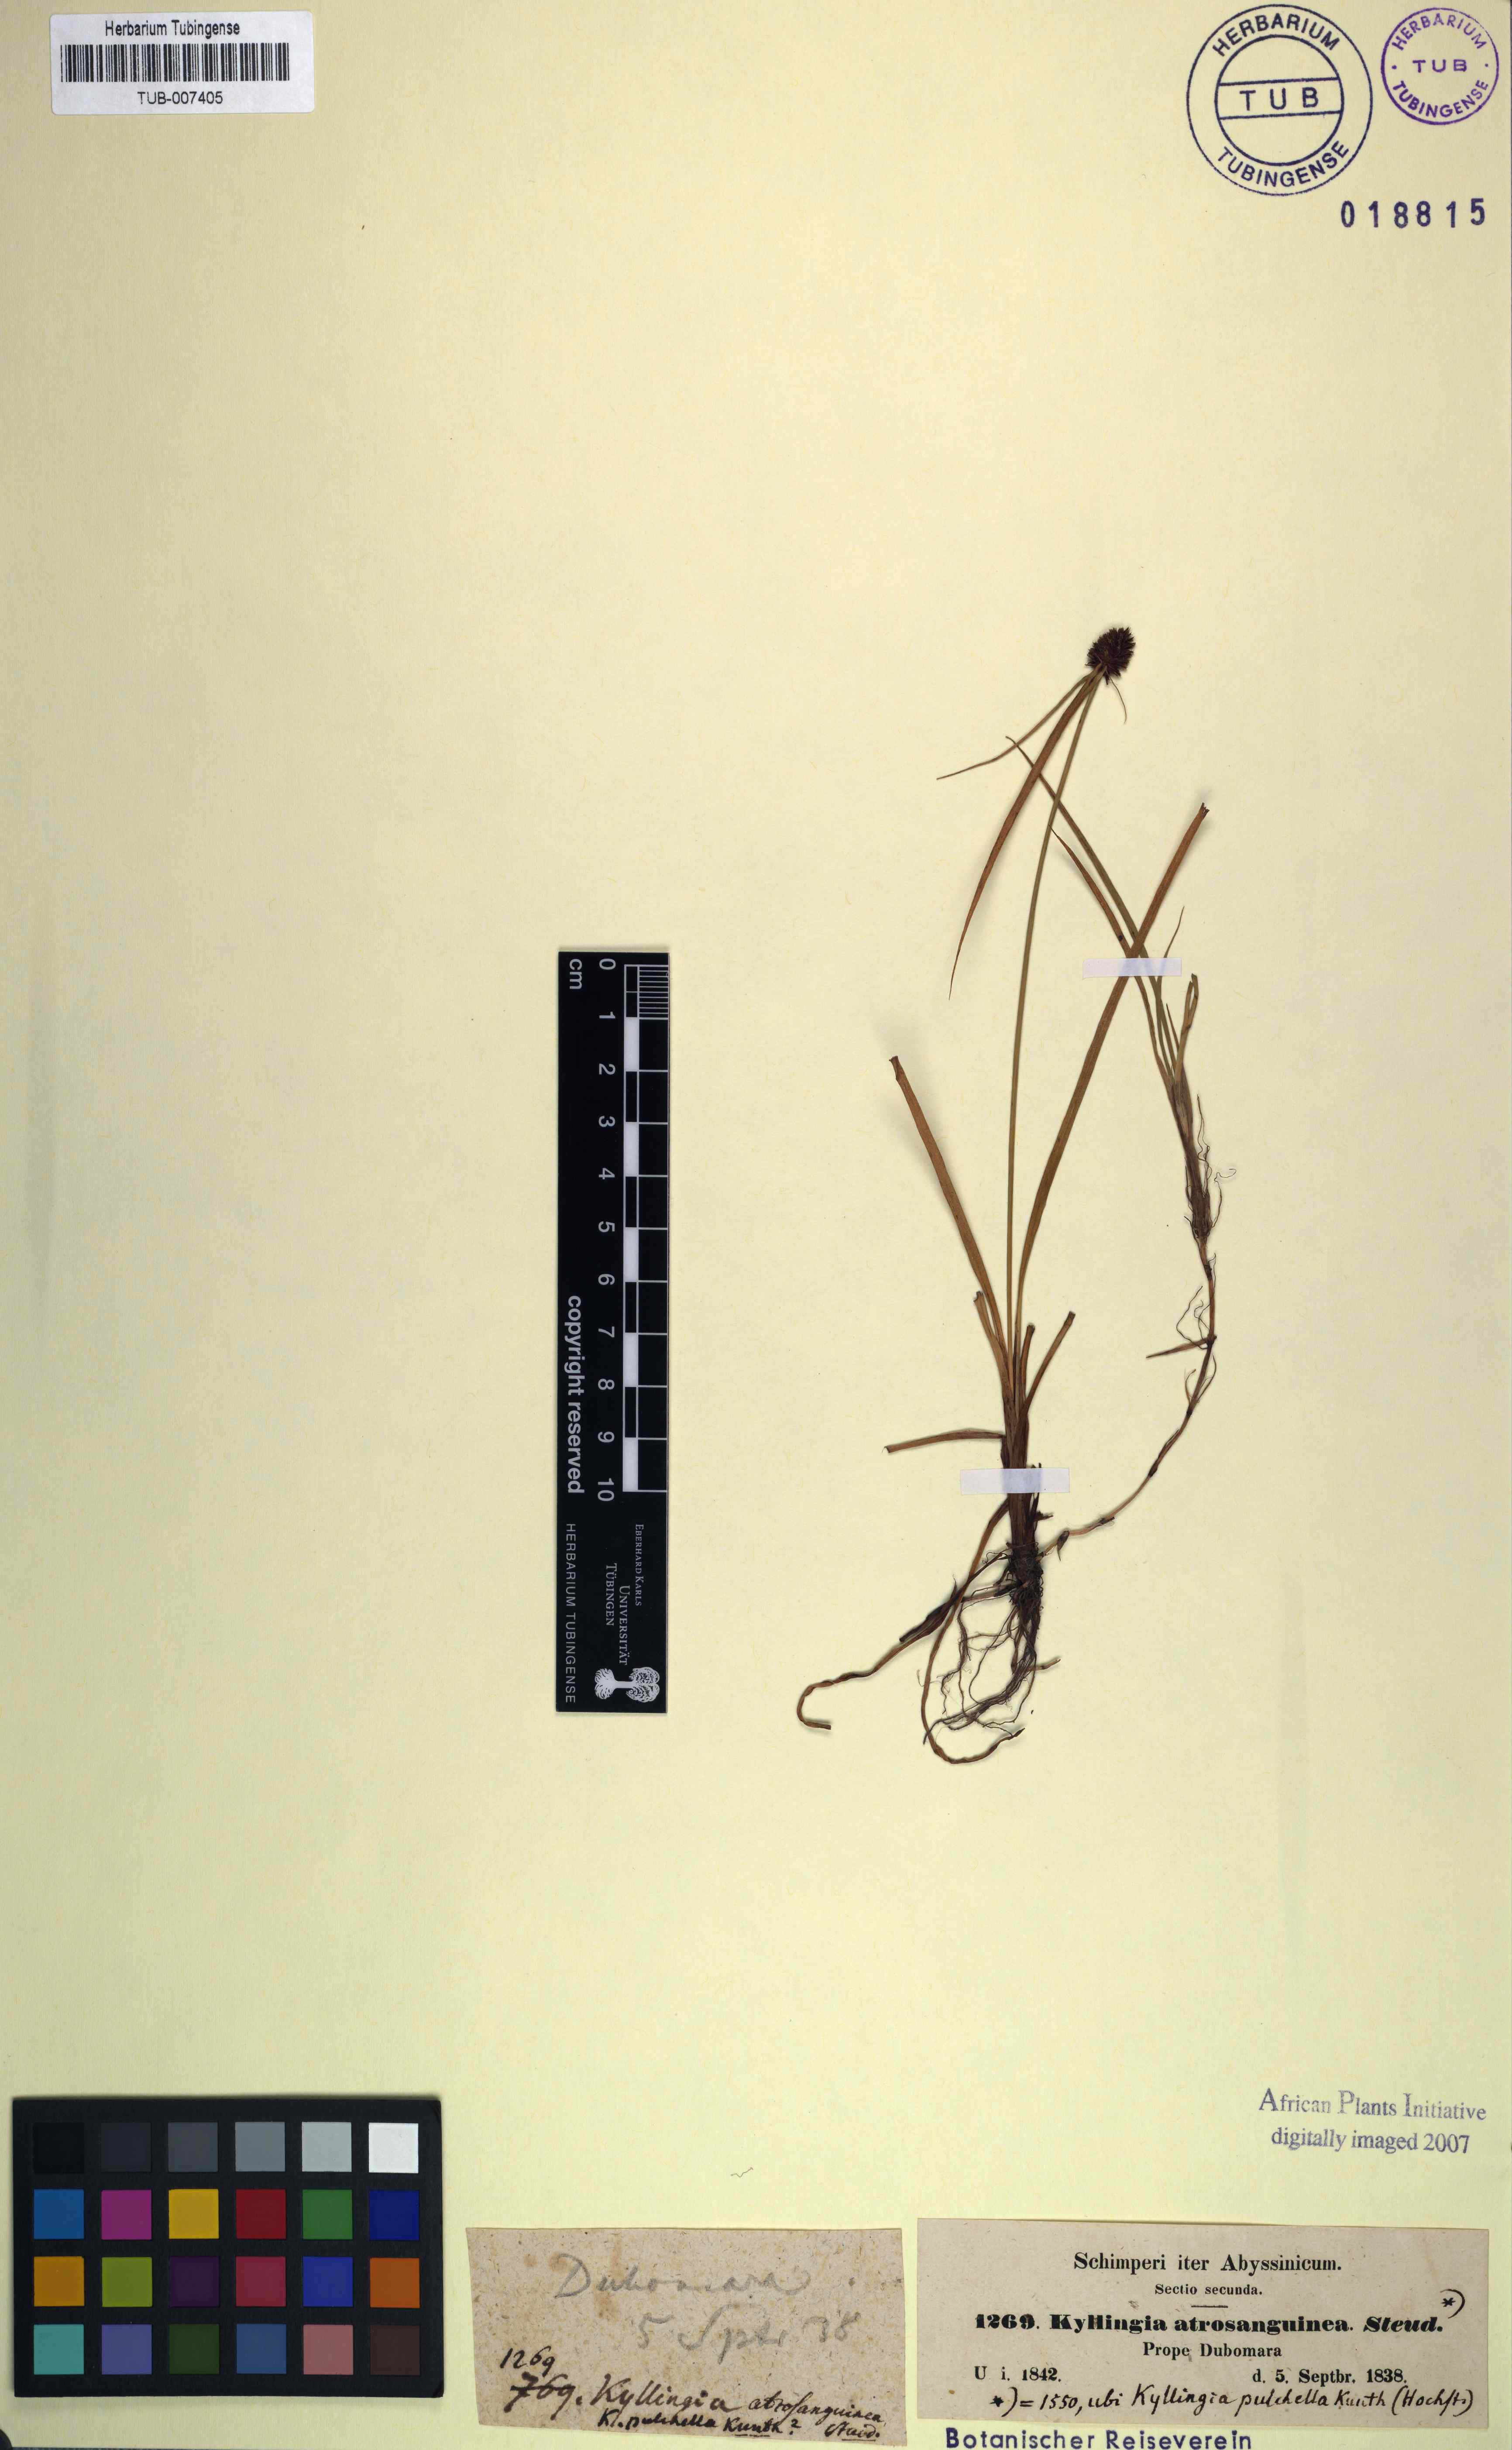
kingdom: Plantae
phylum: Tracheophyta
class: Liliopsida
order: Poales
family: Cyperaceae
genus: Cyperus
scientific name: Cyperus bracheilema
